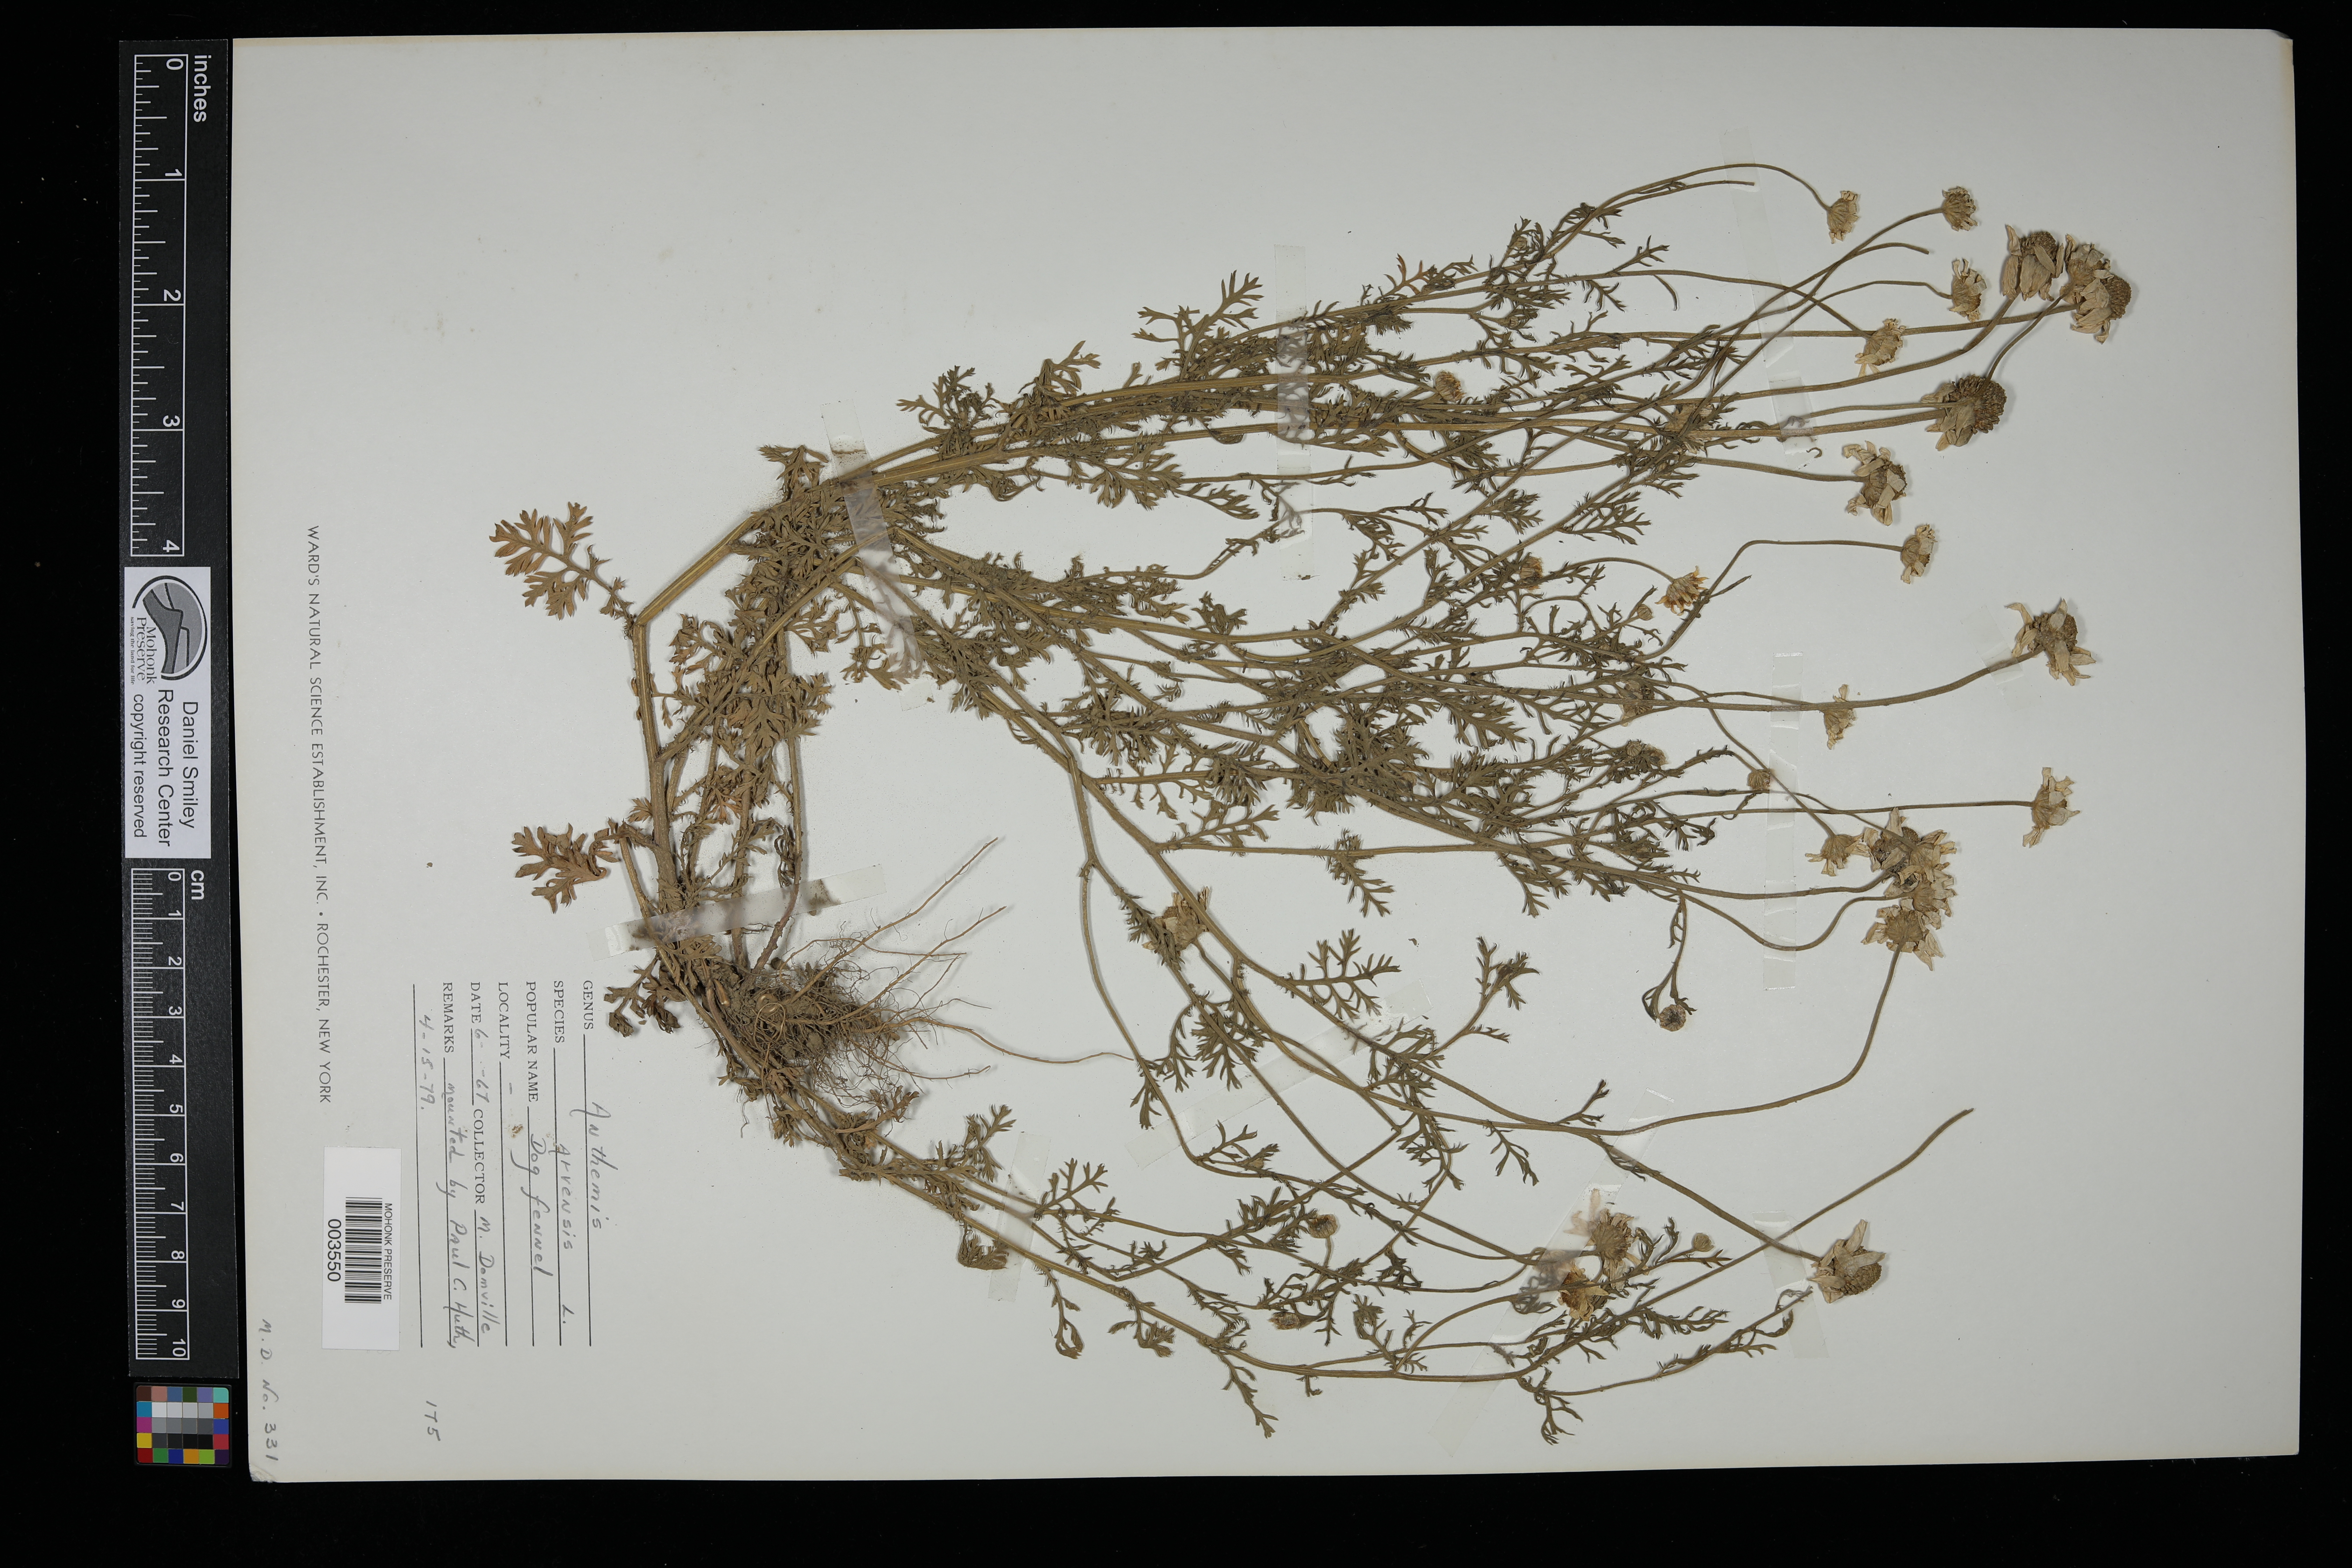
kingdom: Plantae
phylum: Tracheophyta
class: Magnoliopsida
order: Asterales
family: Asteraceae
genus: Anthemis
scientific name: Anthemis arvensis
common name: Corn chamomile
